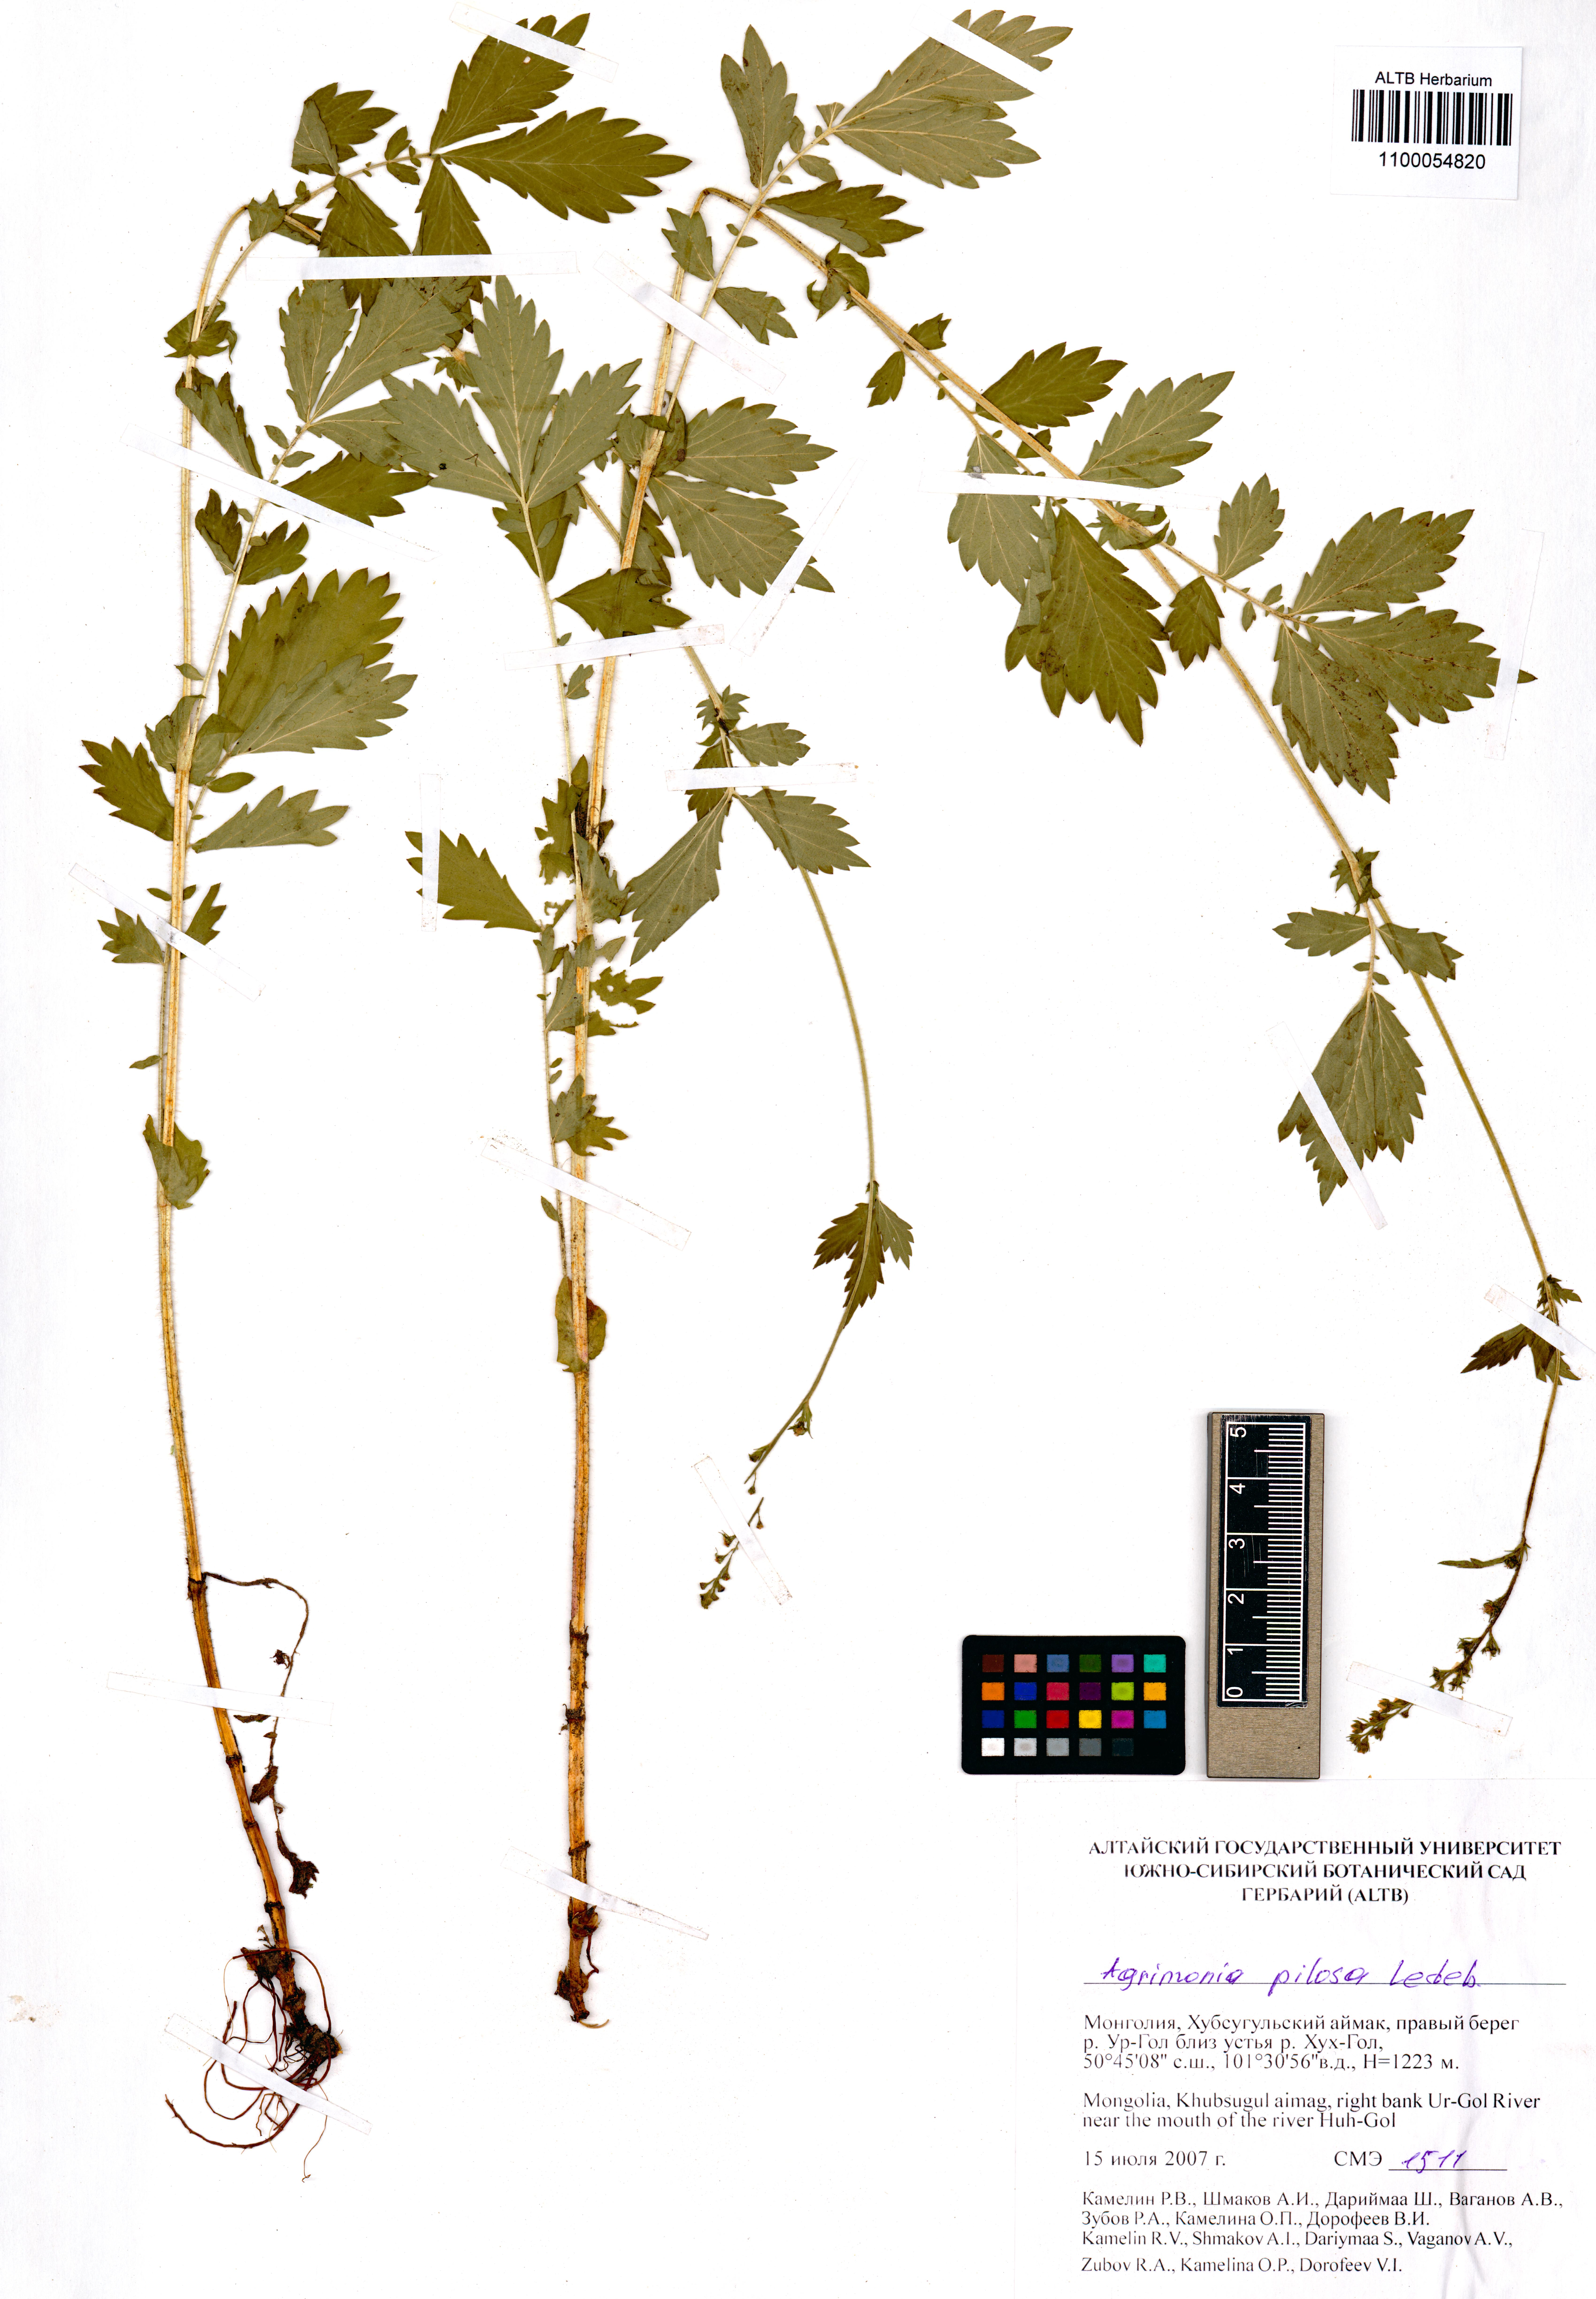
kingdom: Plantae
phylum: Tracheophyta
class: Magnoliopsida
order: Rosales
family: Rosaceae
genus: Agrimonia
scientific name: Agrimonia pilosa
